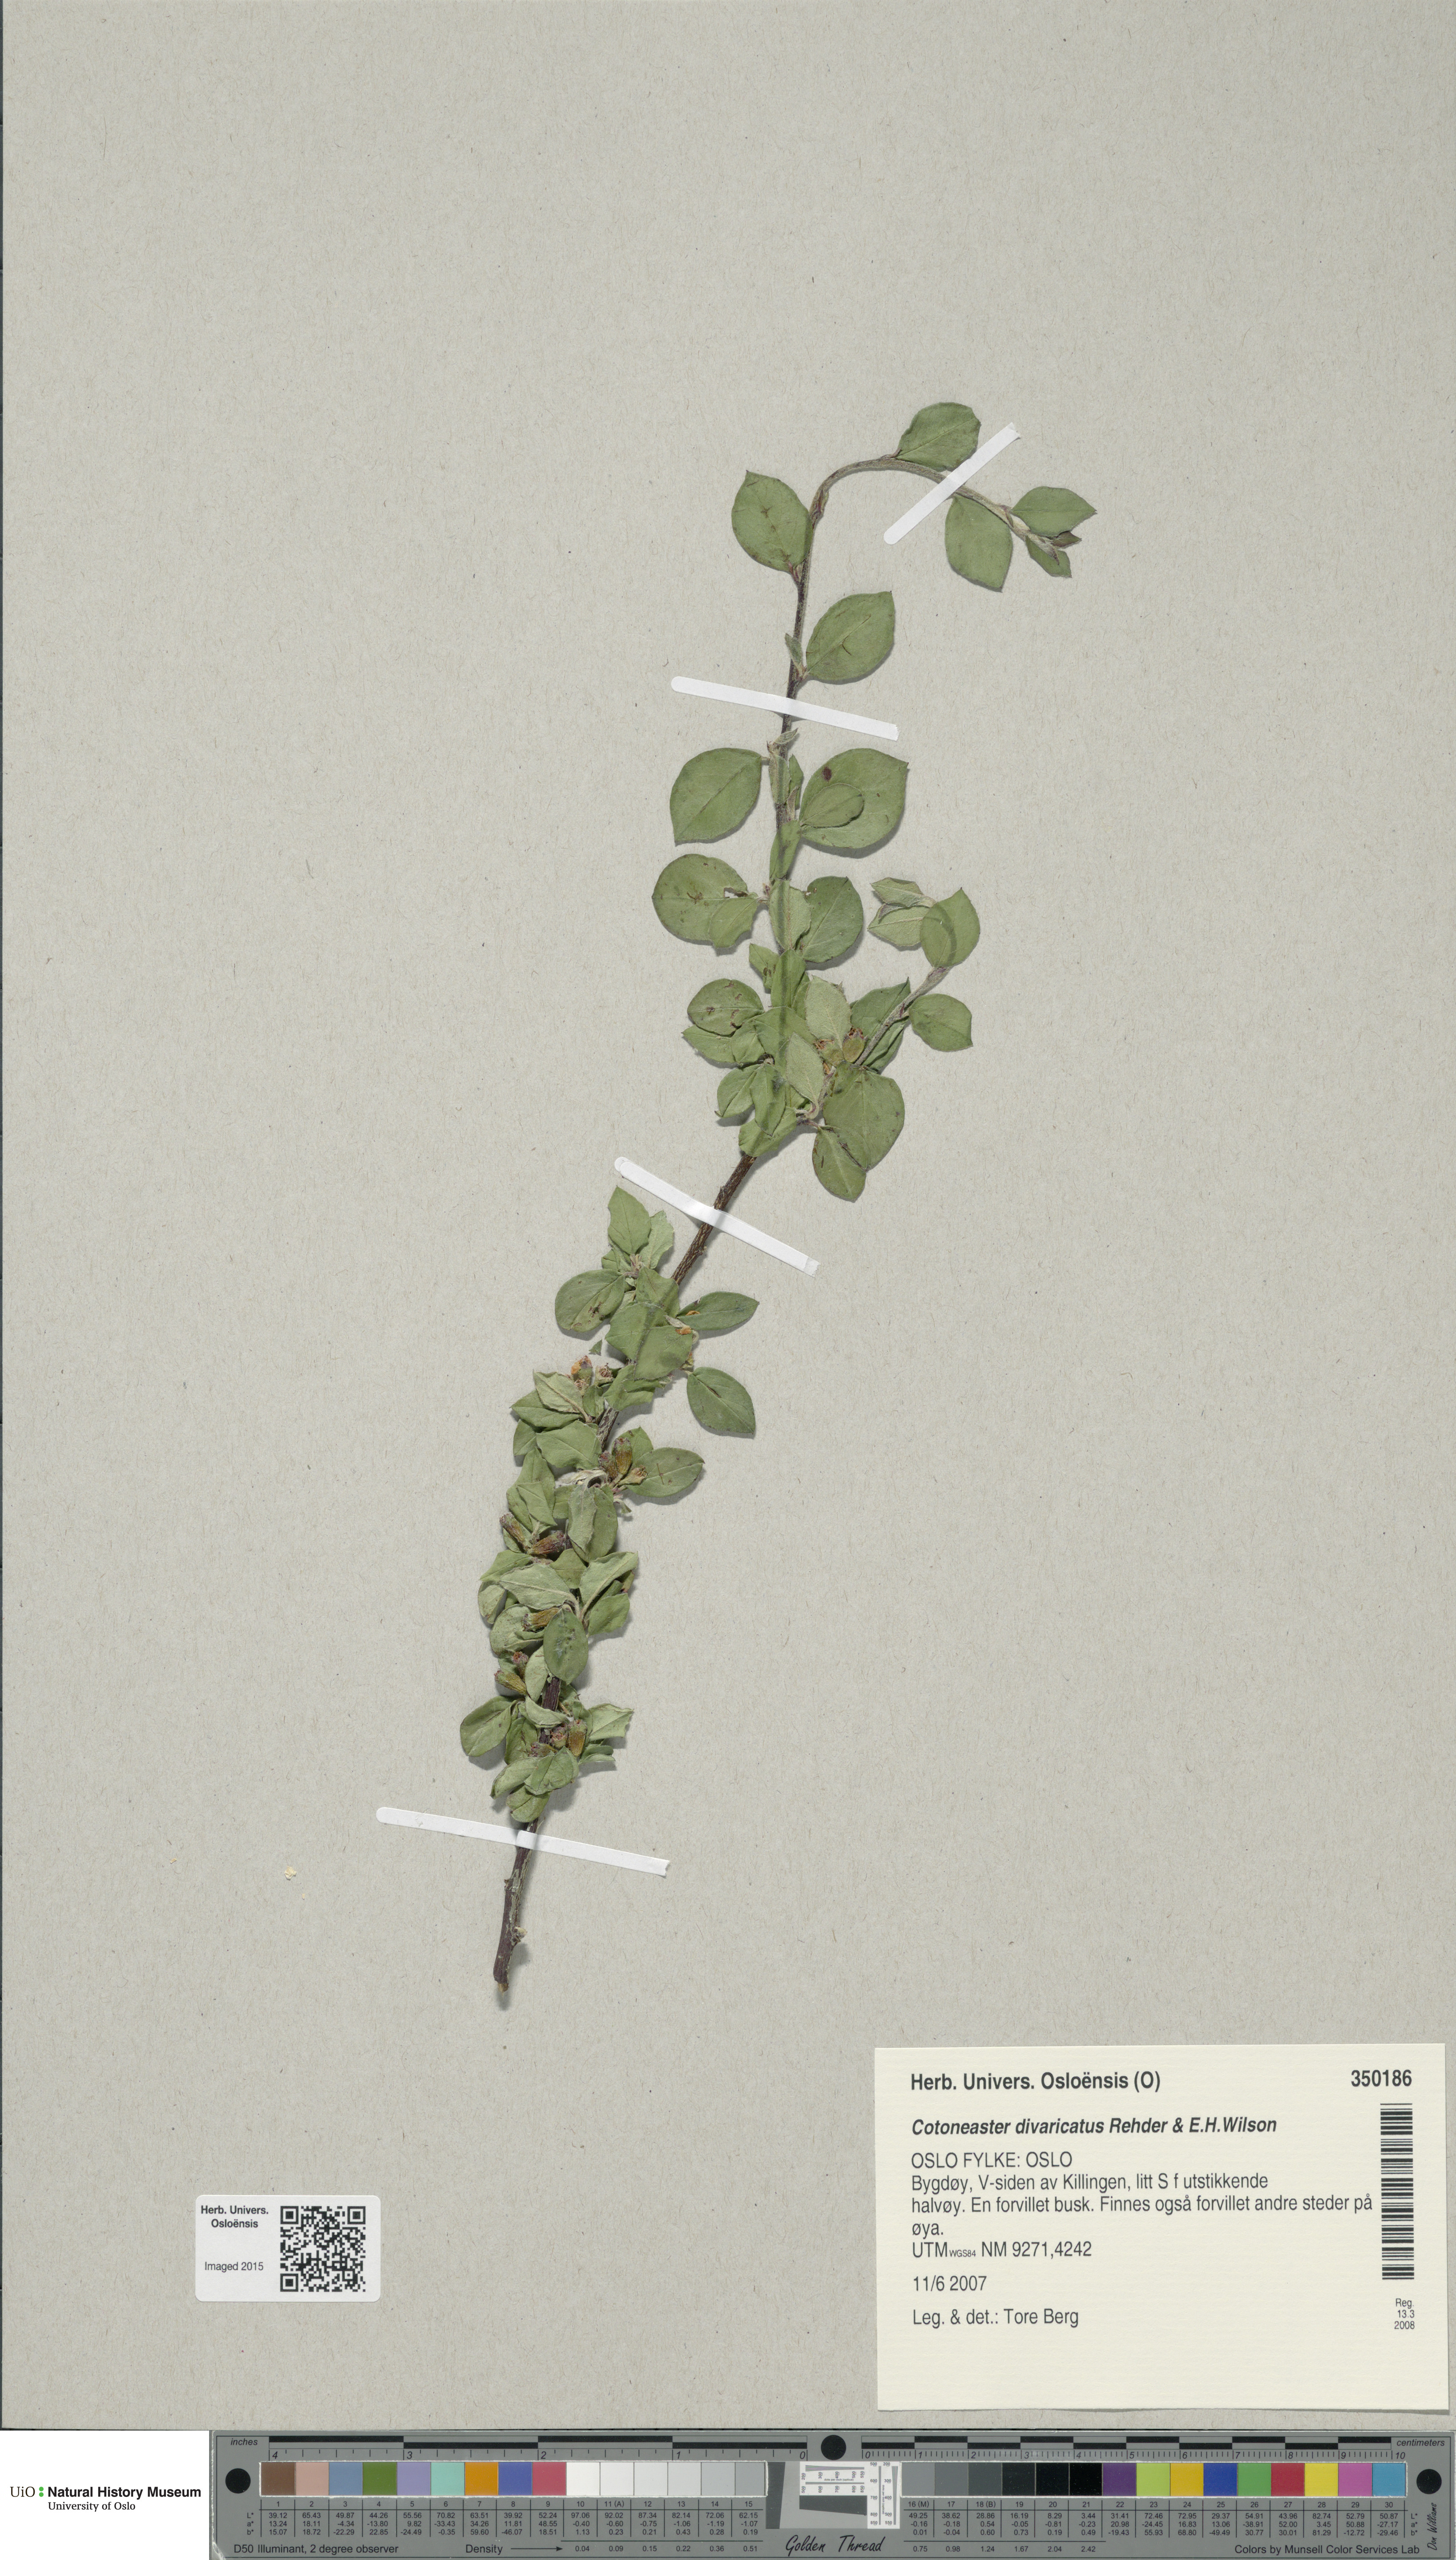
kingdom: Plantae
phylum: Tracheophyta
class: Magnoliopsida
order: Rosales
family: Rosaceae
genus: Cotoneaster
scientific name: Cotoneaster divaricatus
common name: Spreading cotoneaster
